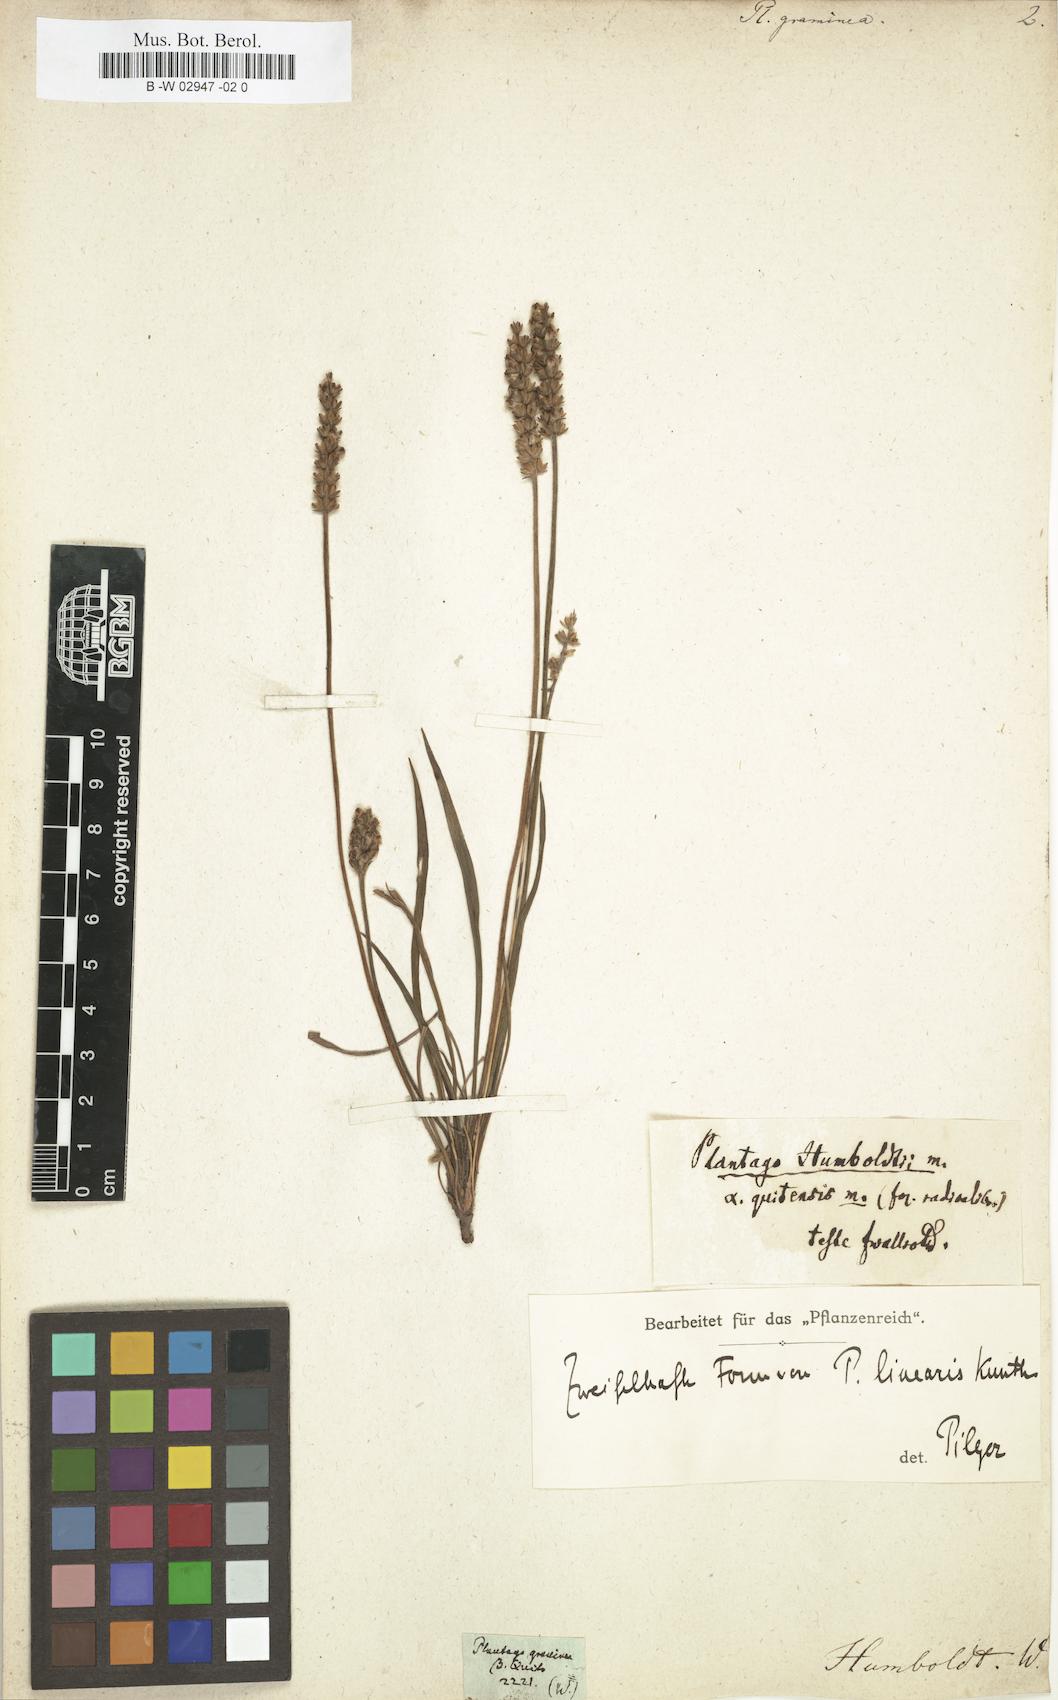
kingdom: Plantae
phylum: Tracheophyta
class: Magnoliopsida
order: Lamiales
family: Plantaginaceae
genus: Plantago
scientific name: Plantago
